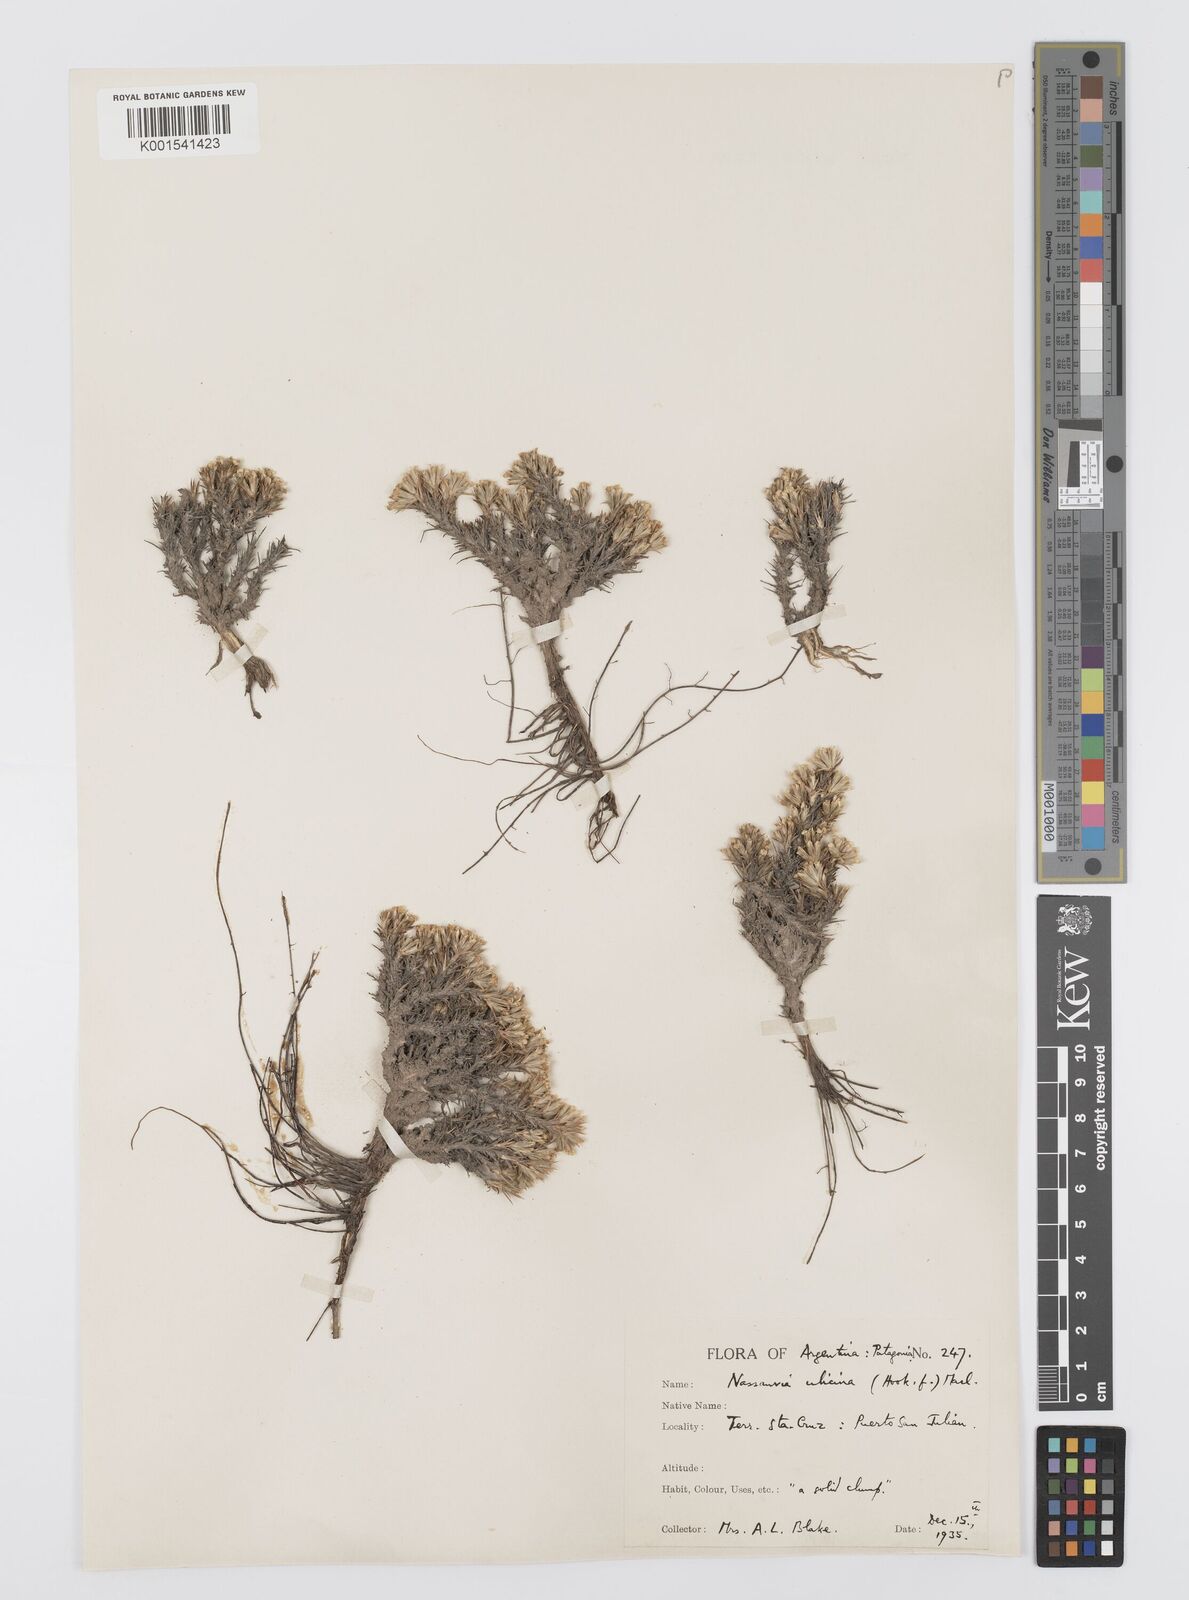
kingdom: Plantae
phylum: Tracheophyta
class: Magnoliopsida
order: Asterales
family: Asteraceae
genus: Nassauvia
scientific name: Nassauvia ulicina
